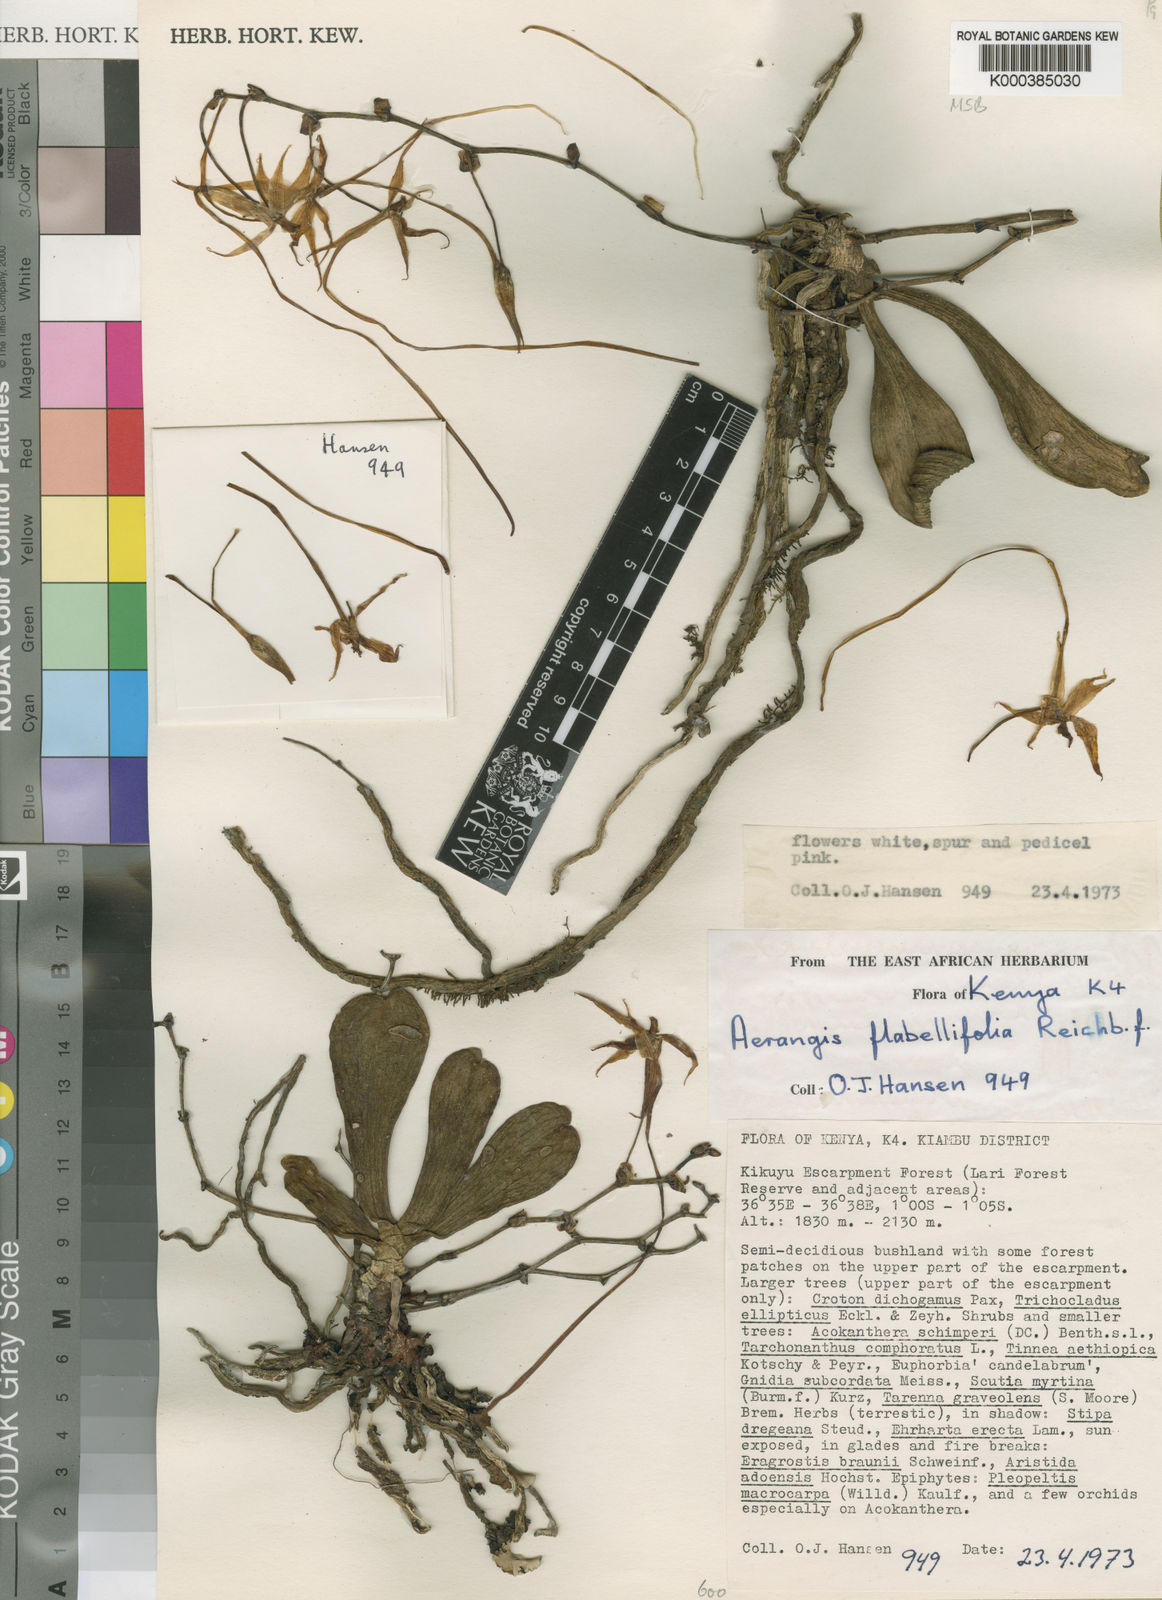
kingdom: Plantae
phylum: Tracheophyta
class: Liliopsida
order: Asparagales
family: Orchidaceae
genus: Aerangis
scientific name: Aerangis brachycarpa
